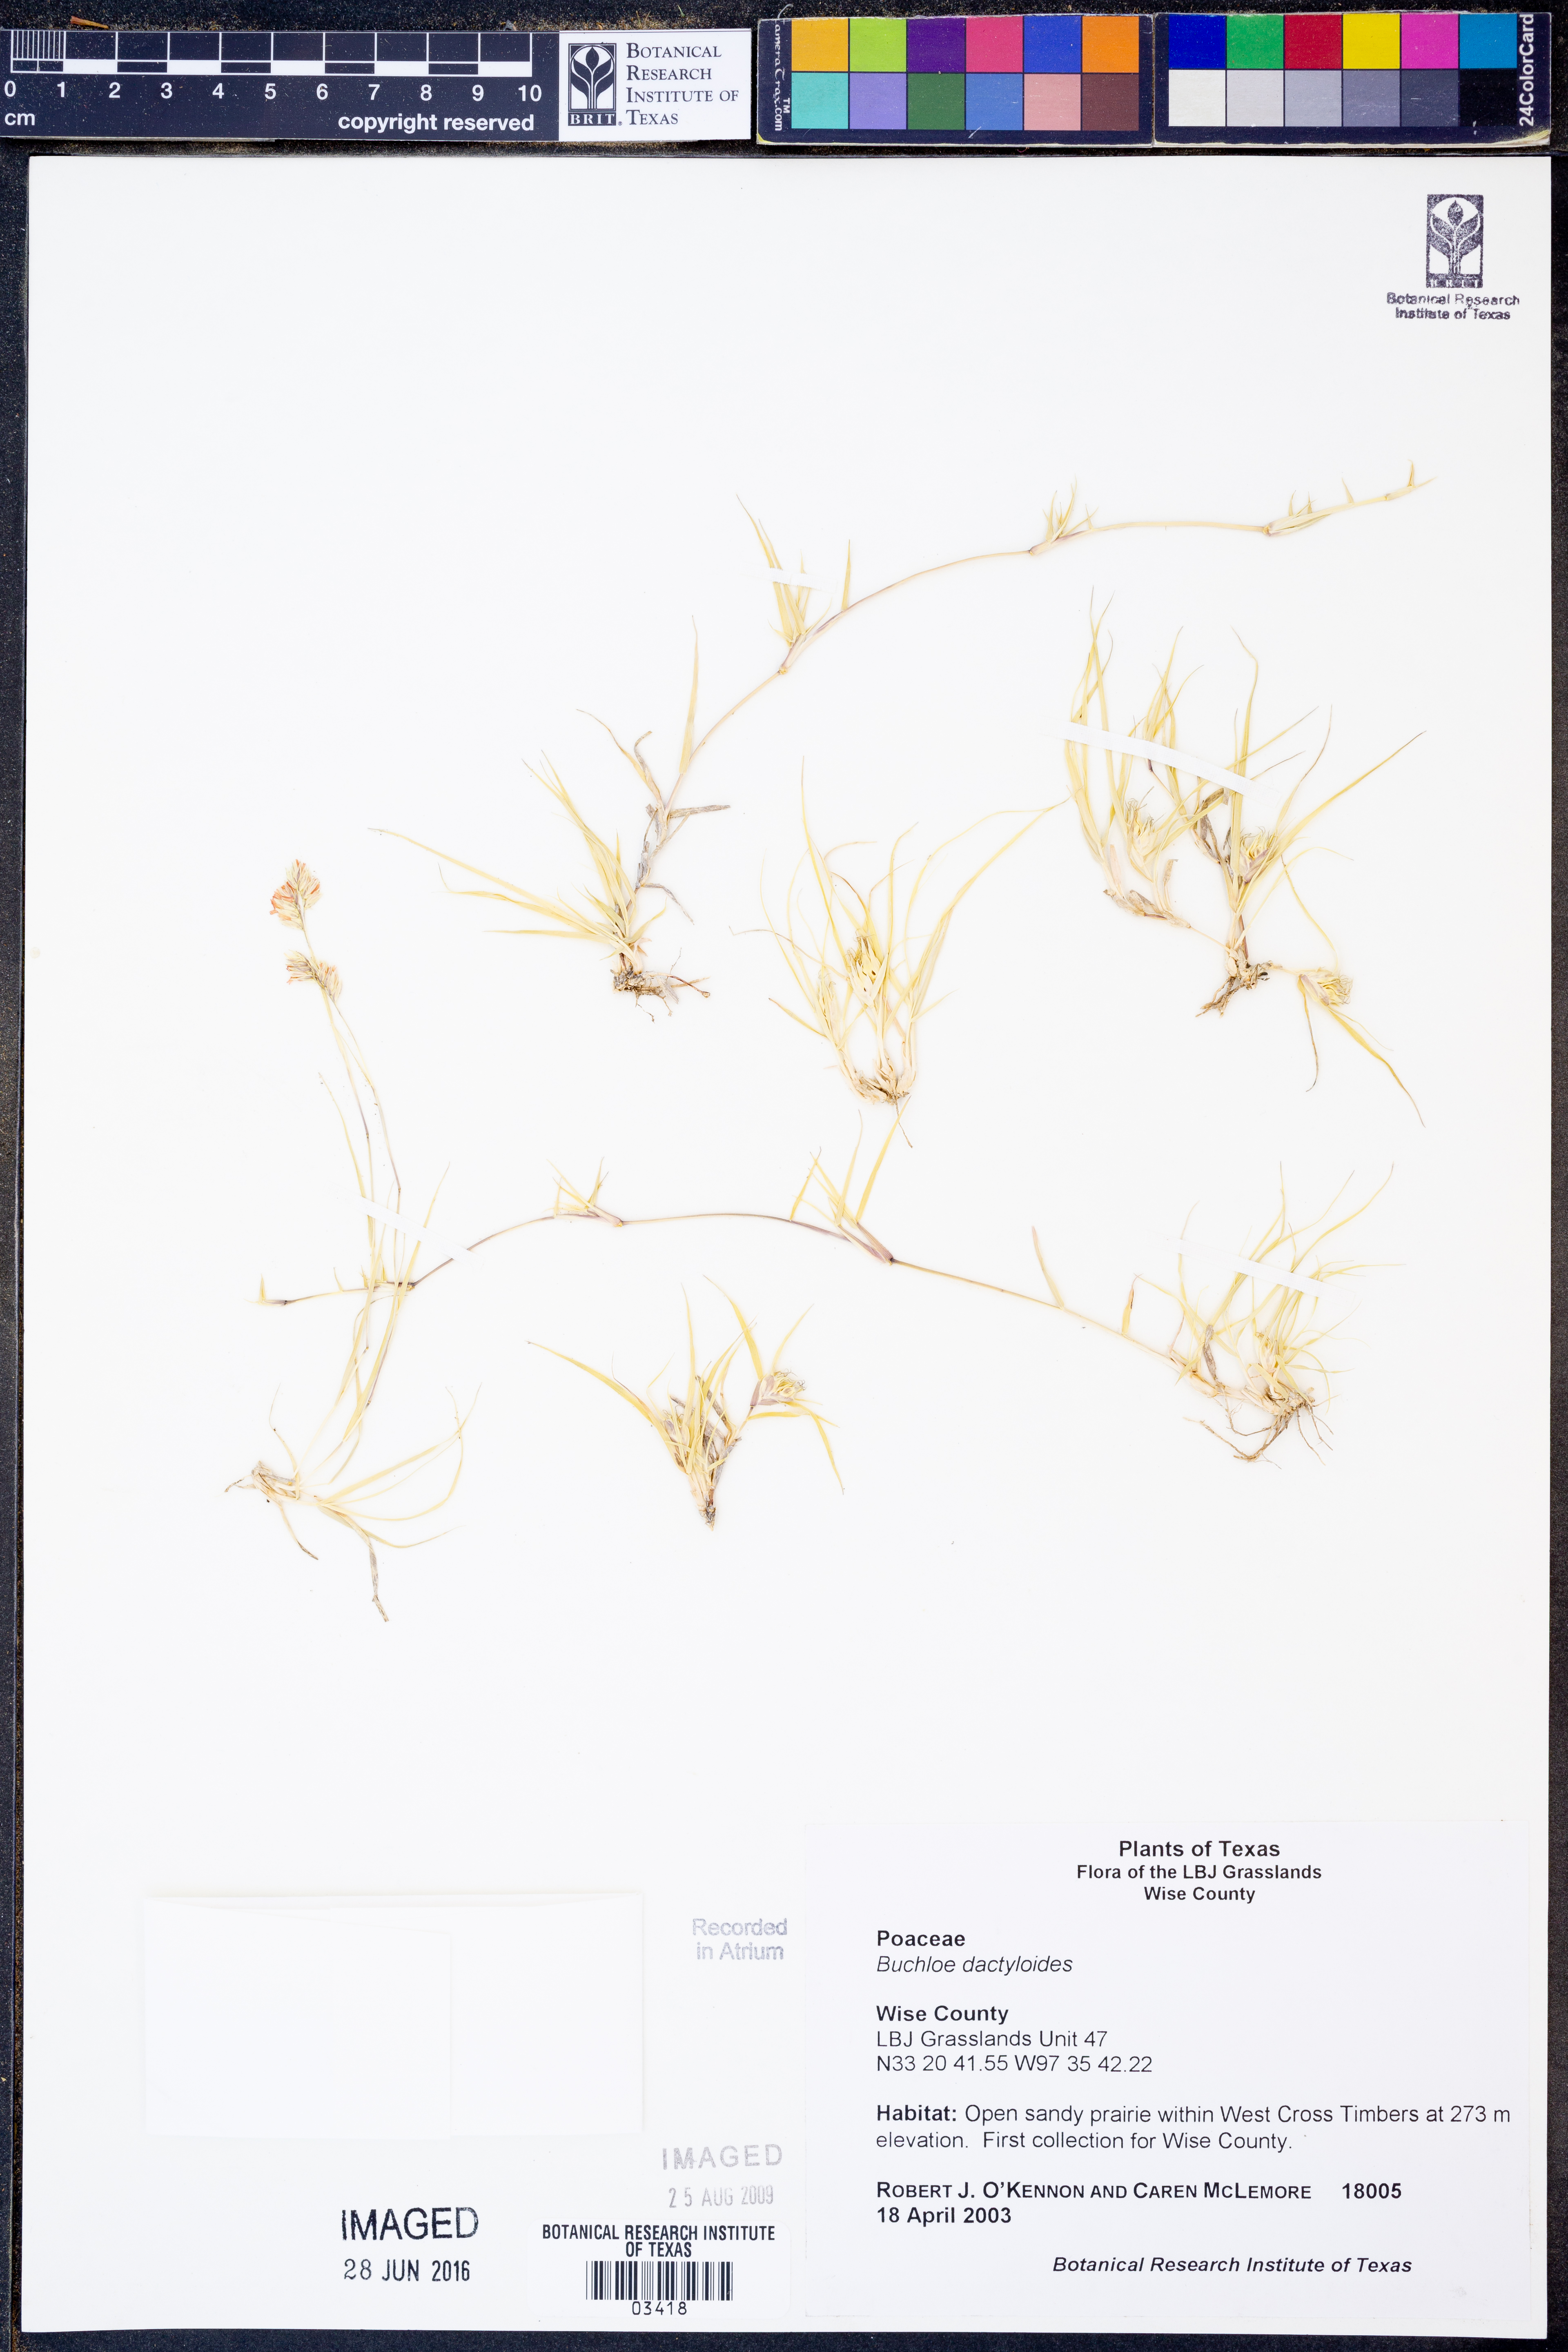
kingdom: Plantae
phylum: Tracheophyta
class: Liliopsida
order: Poales
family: Poaceae
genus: Bouteloua
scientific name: Bouteloua dactyloides
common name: Buffalo grass
